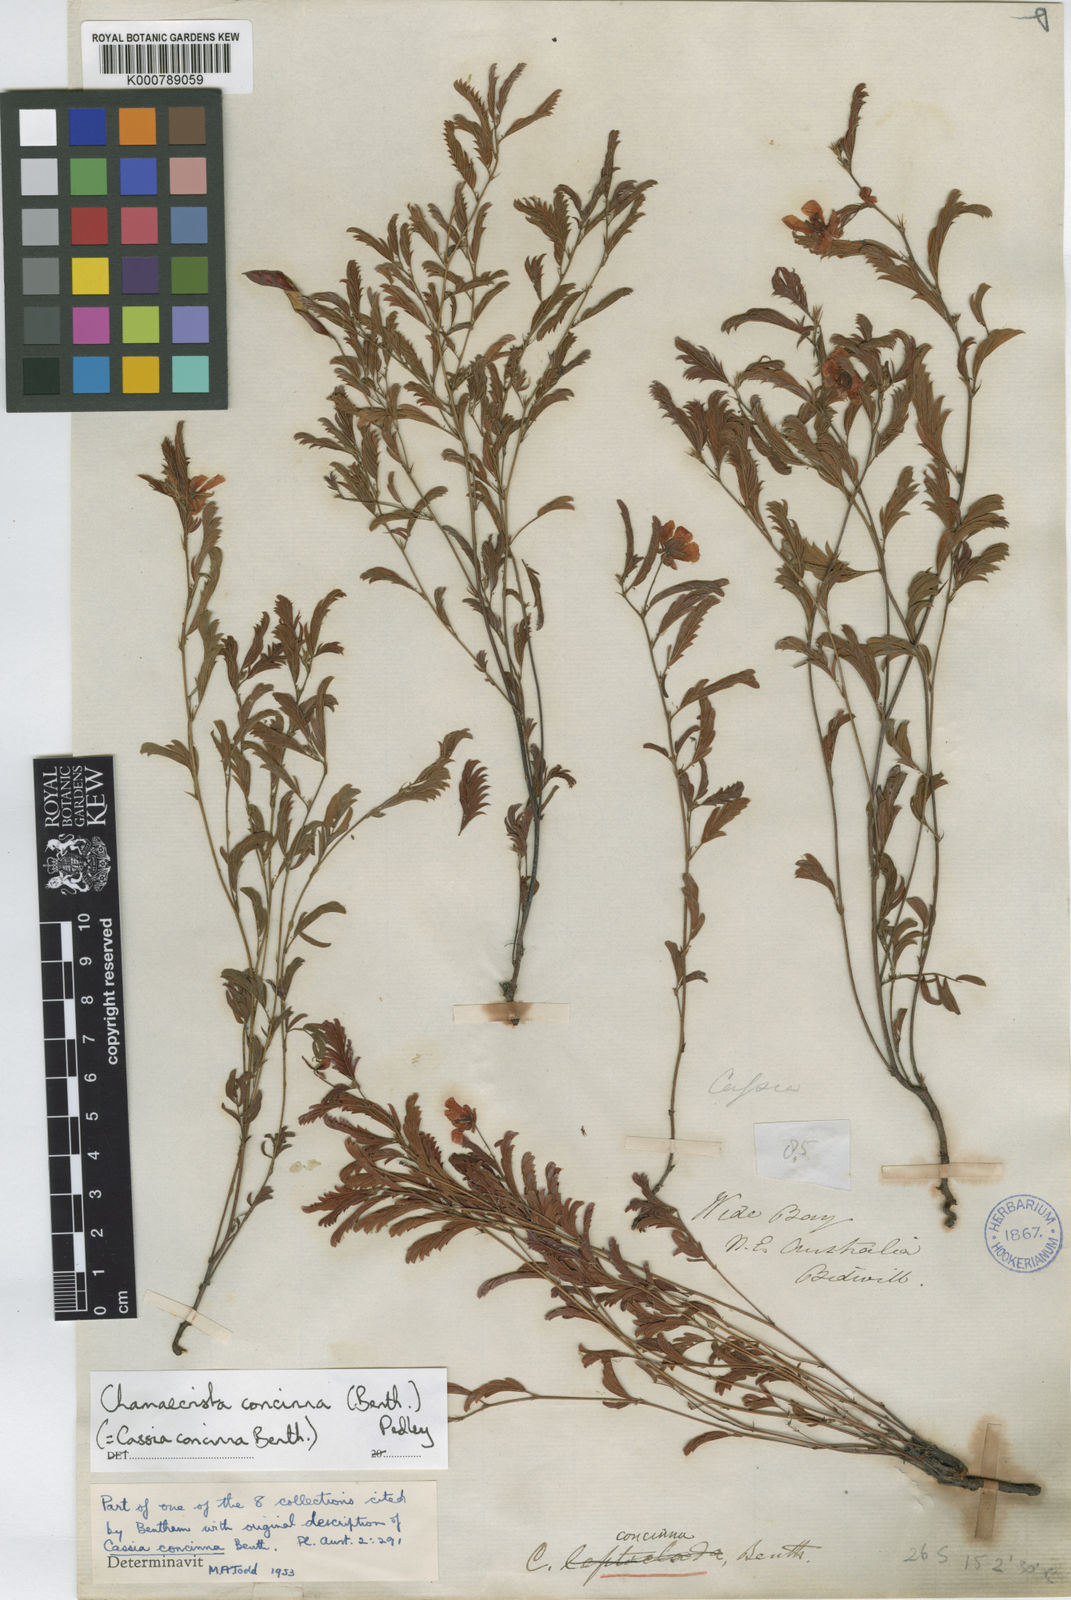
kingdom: Plantae
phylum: Tracheophyta
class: Magnoliopsida
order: Fabales
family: Fabaceae
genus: Chamaecrista
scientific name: Chamaecrista concinna
